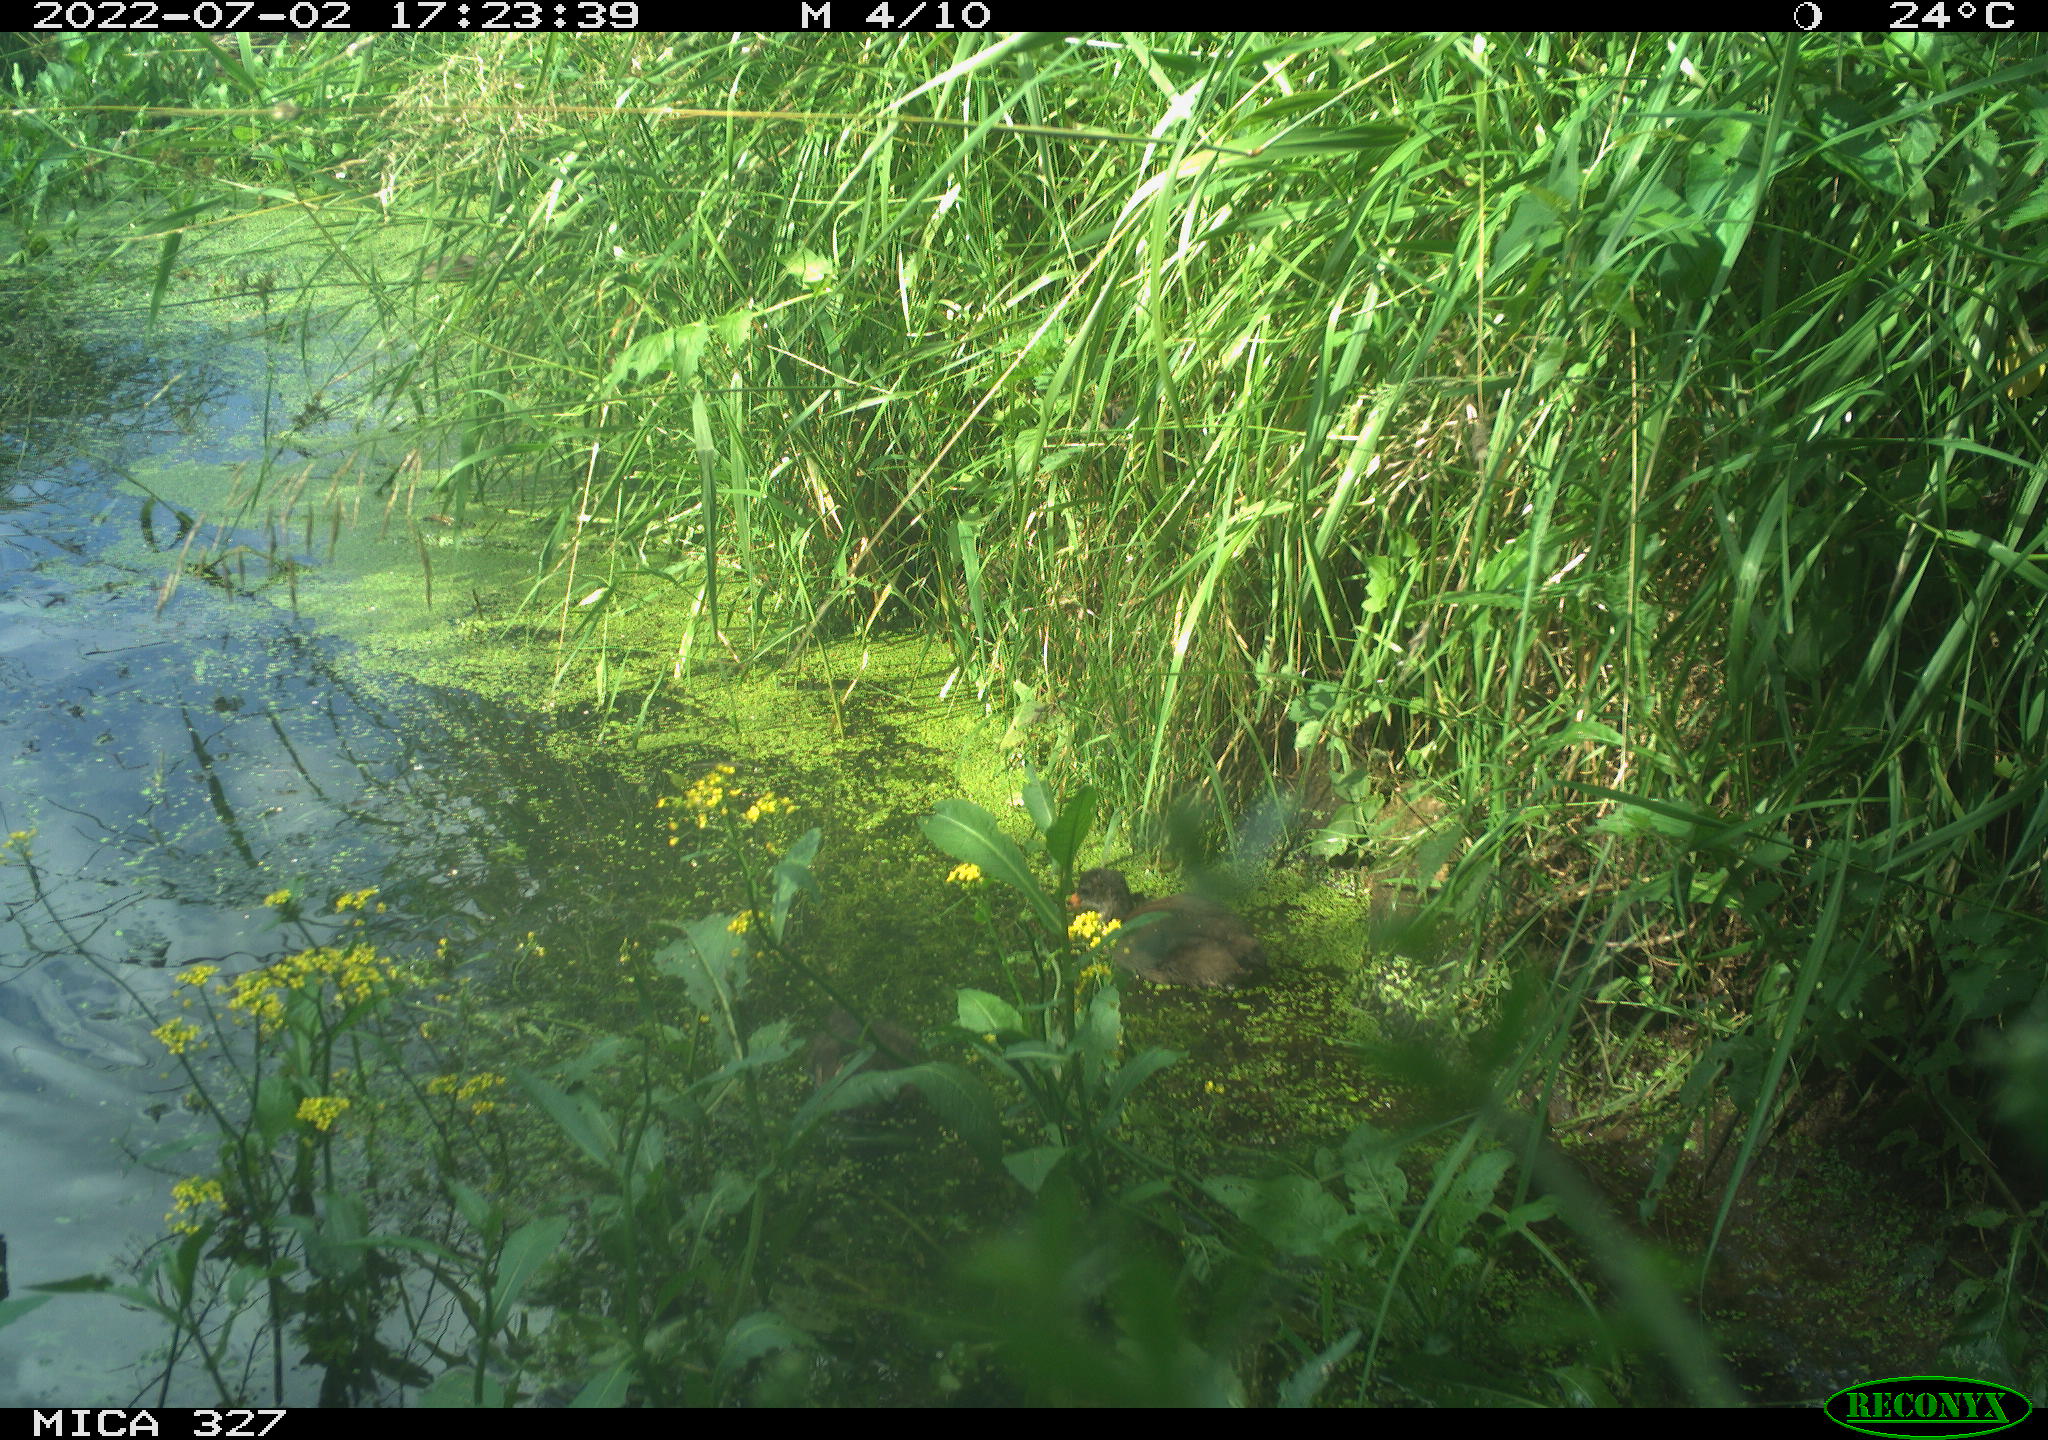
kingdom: Animalia
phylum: Chordata
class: Aves
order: Gruiformes
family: Rallidae
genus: Gallinula
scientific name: Gallinula chloropus
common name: Common moorhen
